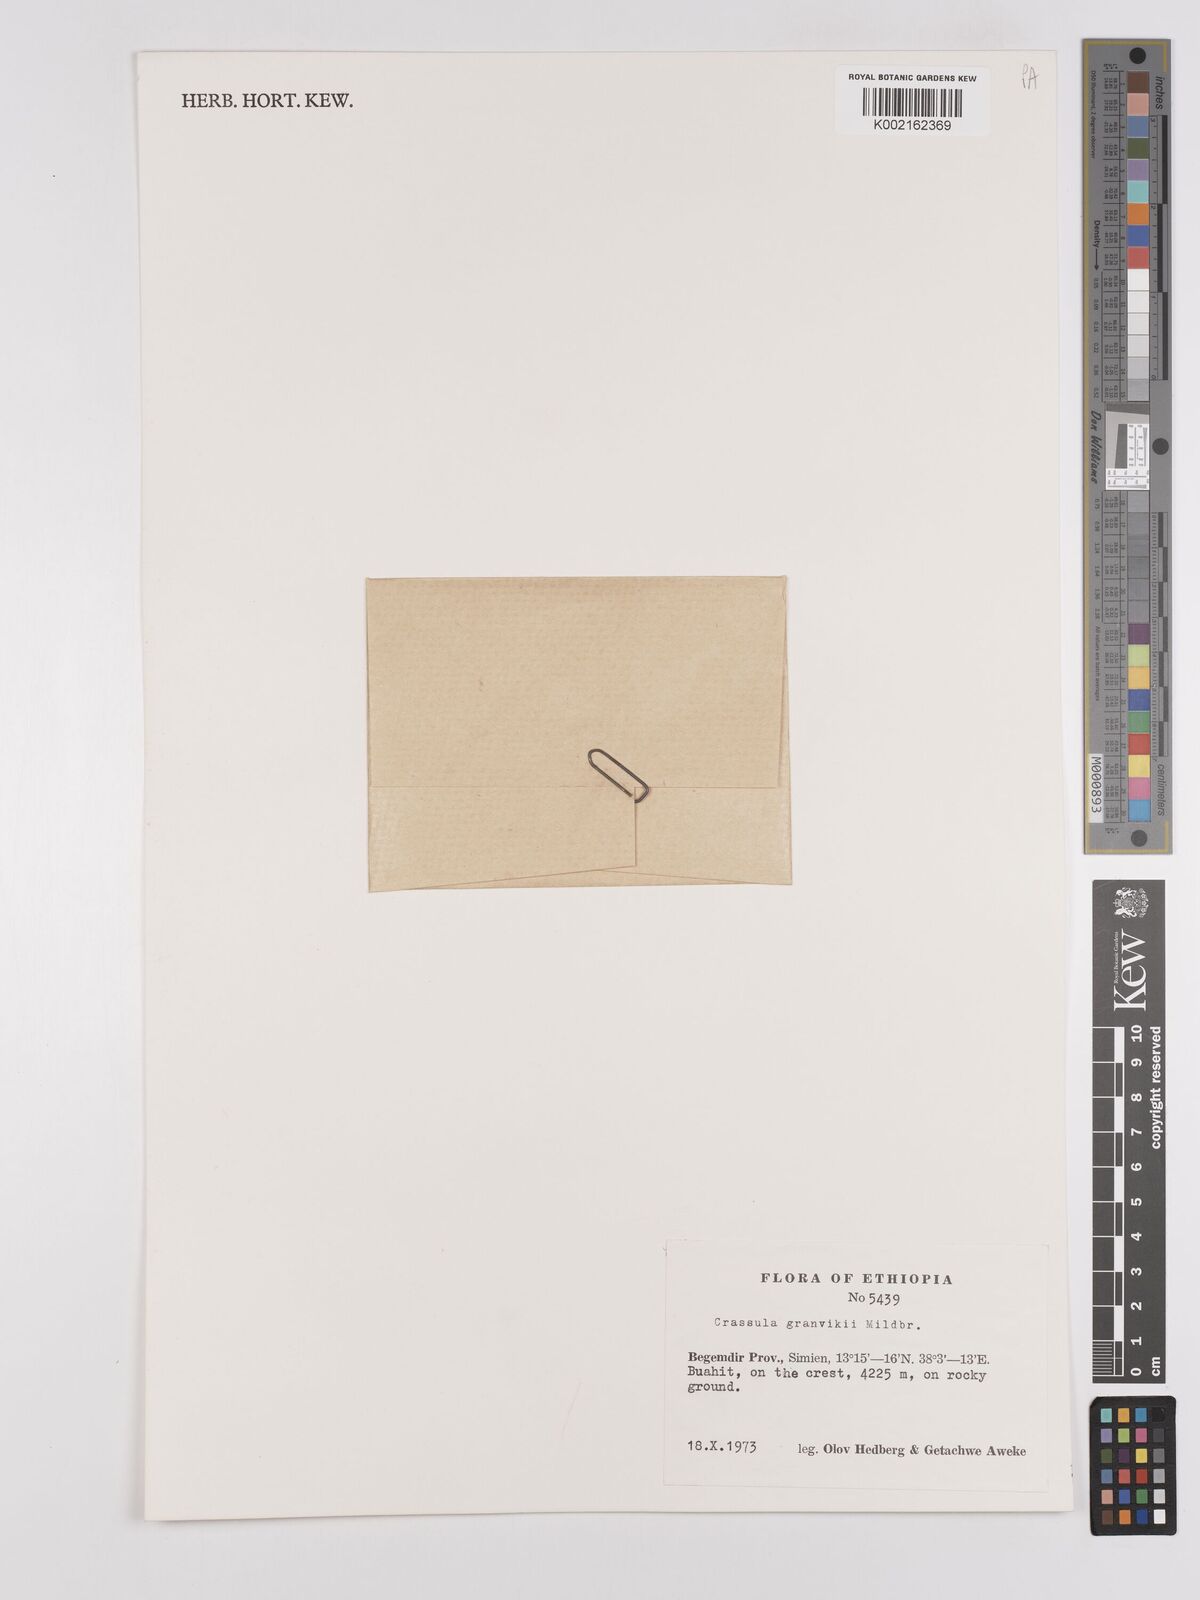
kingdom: Plantae
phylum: Tracheophyta
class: Magnoliopsida
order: Saxifragales
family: Crassulaceae
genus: Crassula
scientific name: Crassula granvikii
